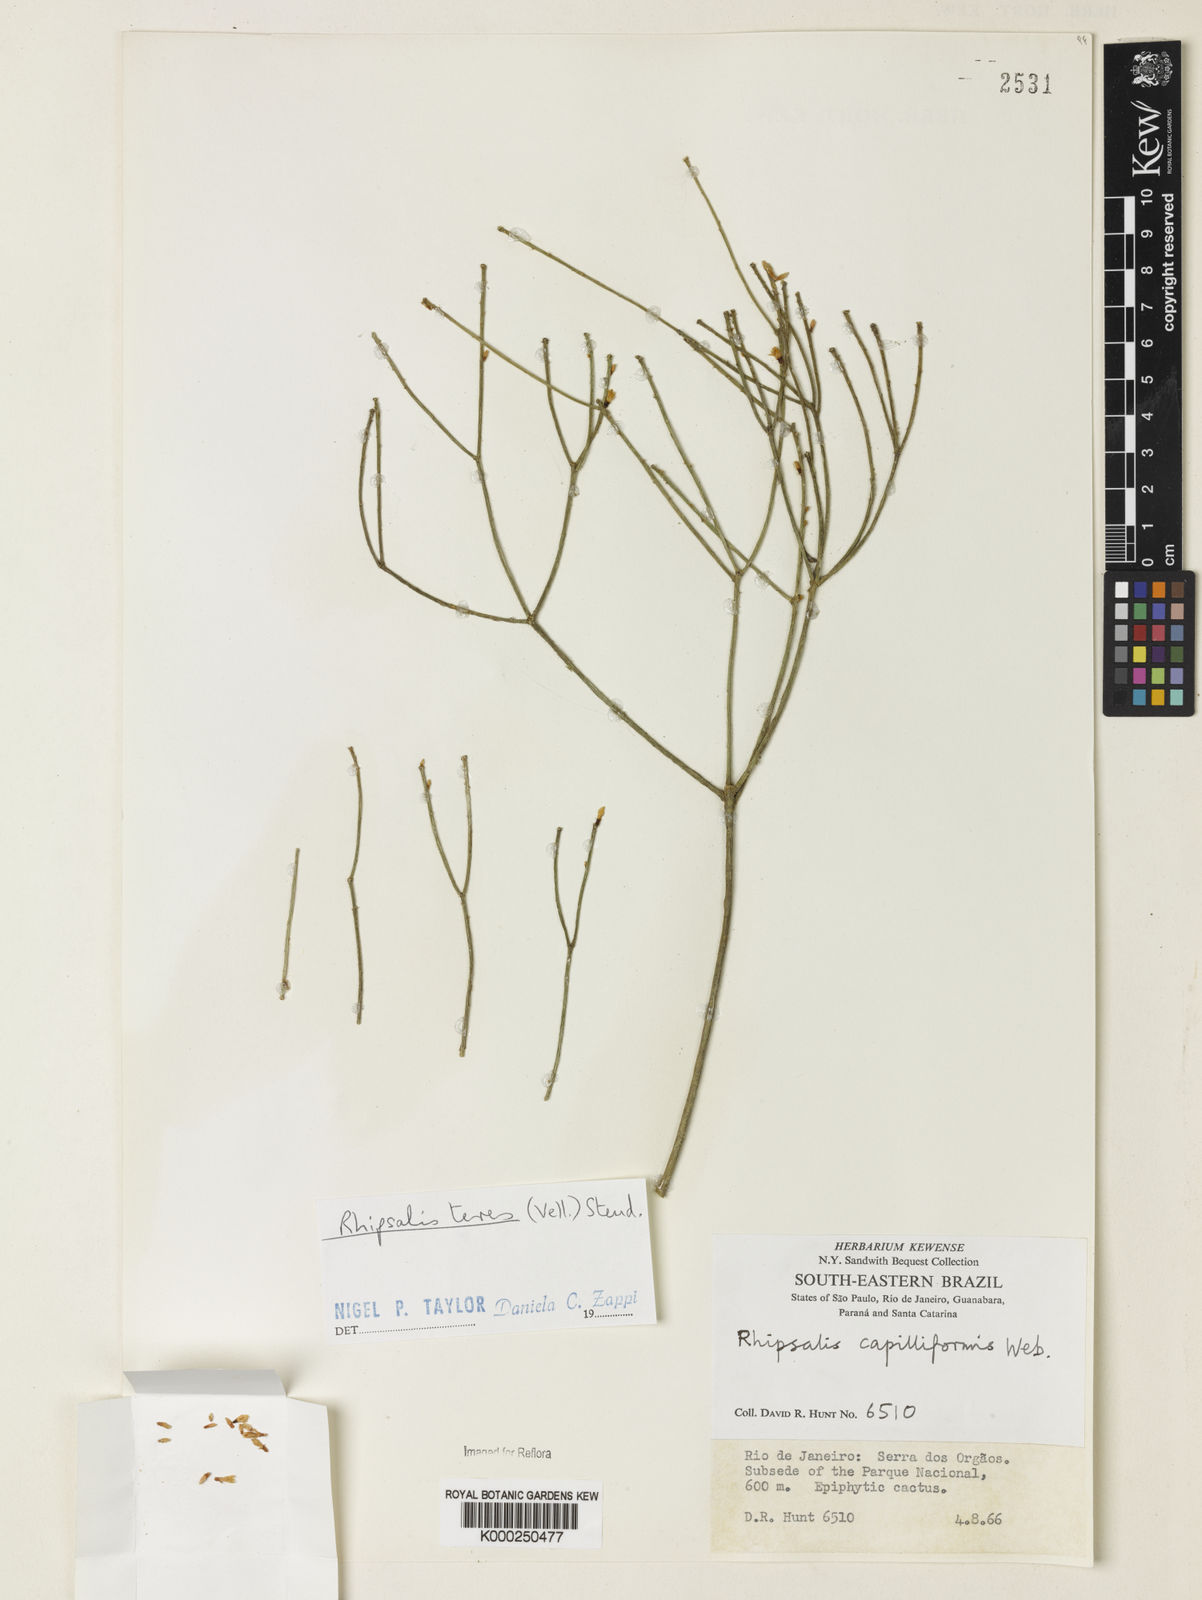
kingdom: Plantae
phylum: Tracheophyta
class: Magnoliopsida
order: Caryophyllales
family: Cactaceae
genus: Rhipsalis
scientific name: Rhipsalis teres
